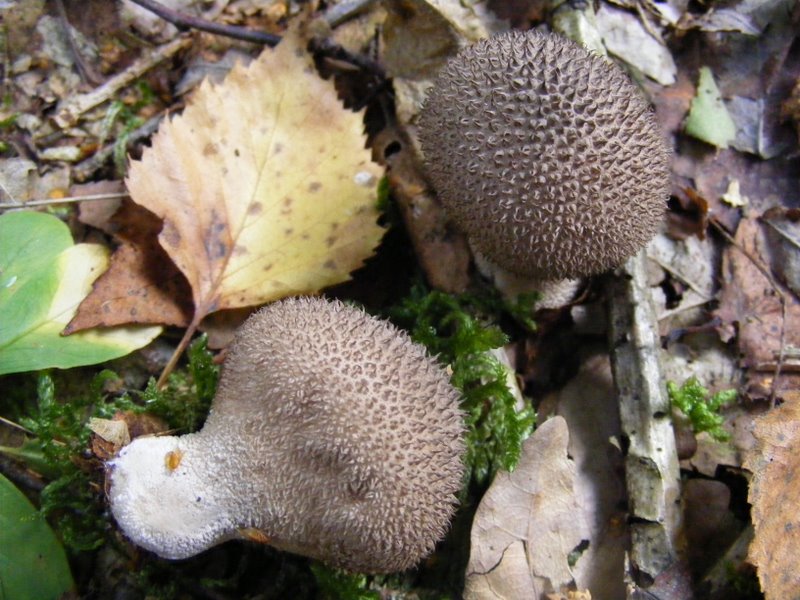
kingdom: Fungi
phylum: Basidiomycota
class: Agaricomycetes
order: Agaricales
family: Lycoperdaceae
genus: Lycoperdon
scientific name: Lycoperdon nigrescens
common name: sortagtig støvbold
